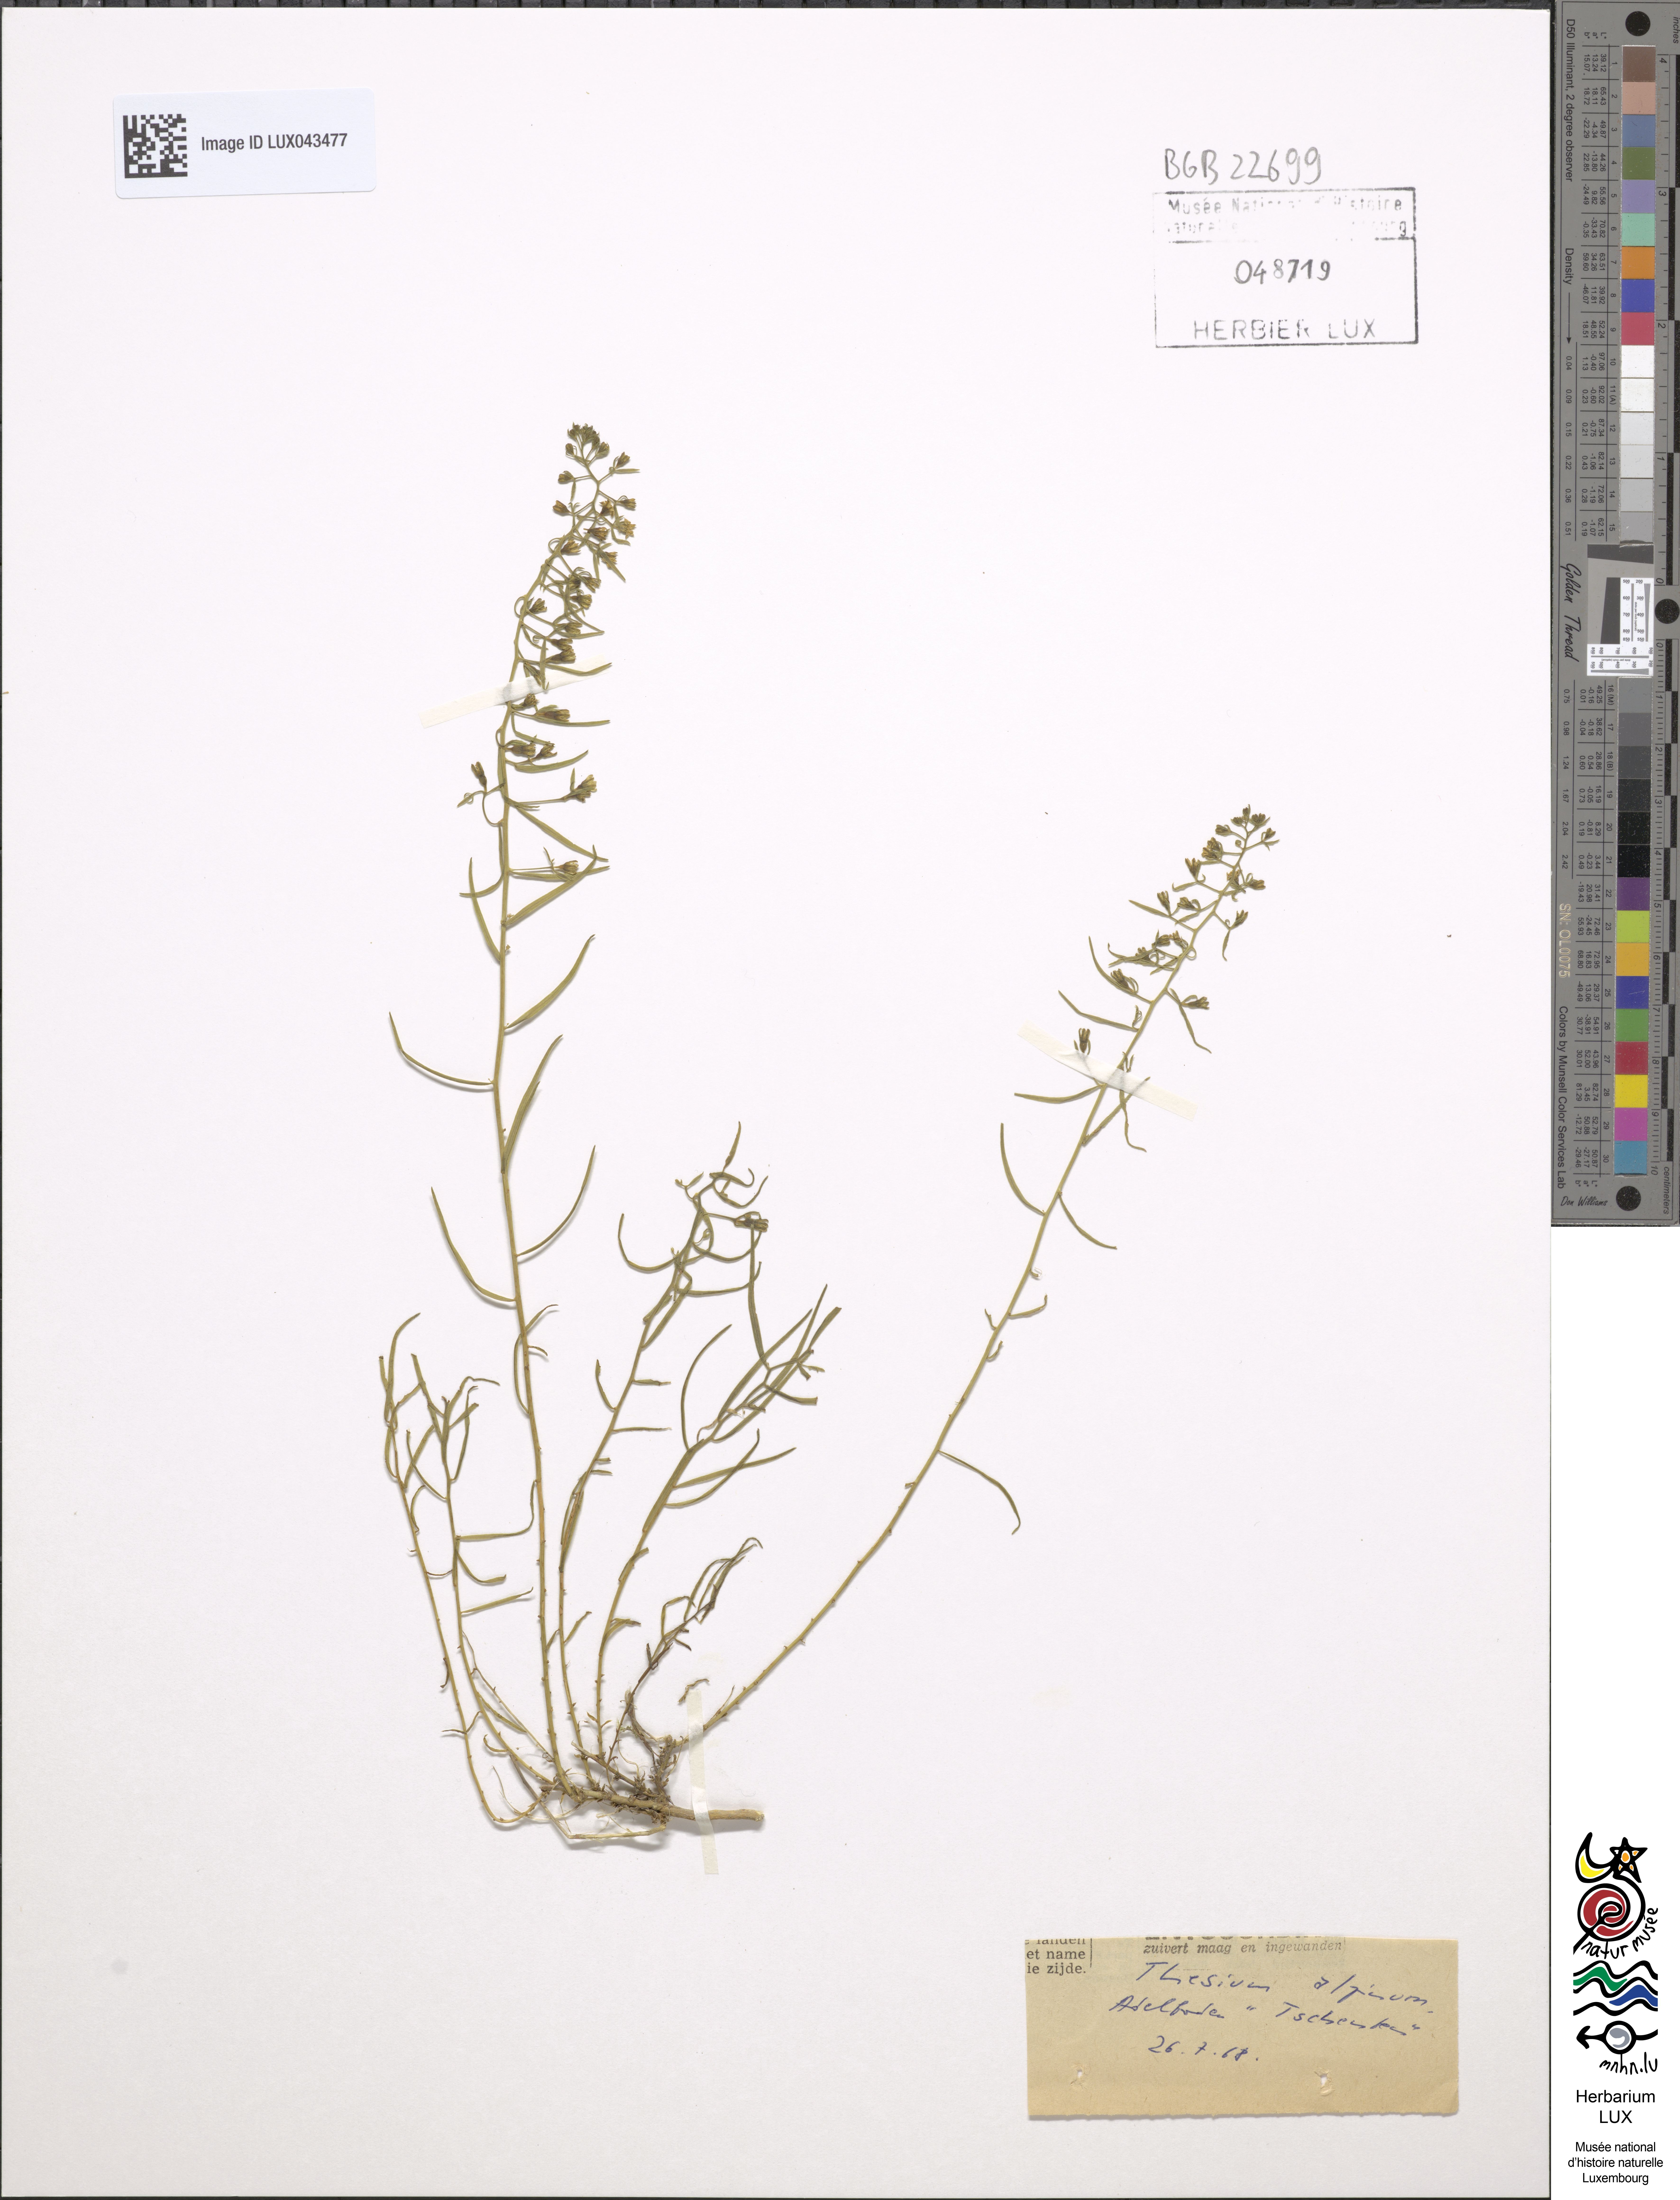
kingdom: Plantae
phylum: Tracheophyta
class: Magnoliopsida
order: Santalales
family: Thesiaceae
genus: Thesium
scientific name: Thesium alpinum
